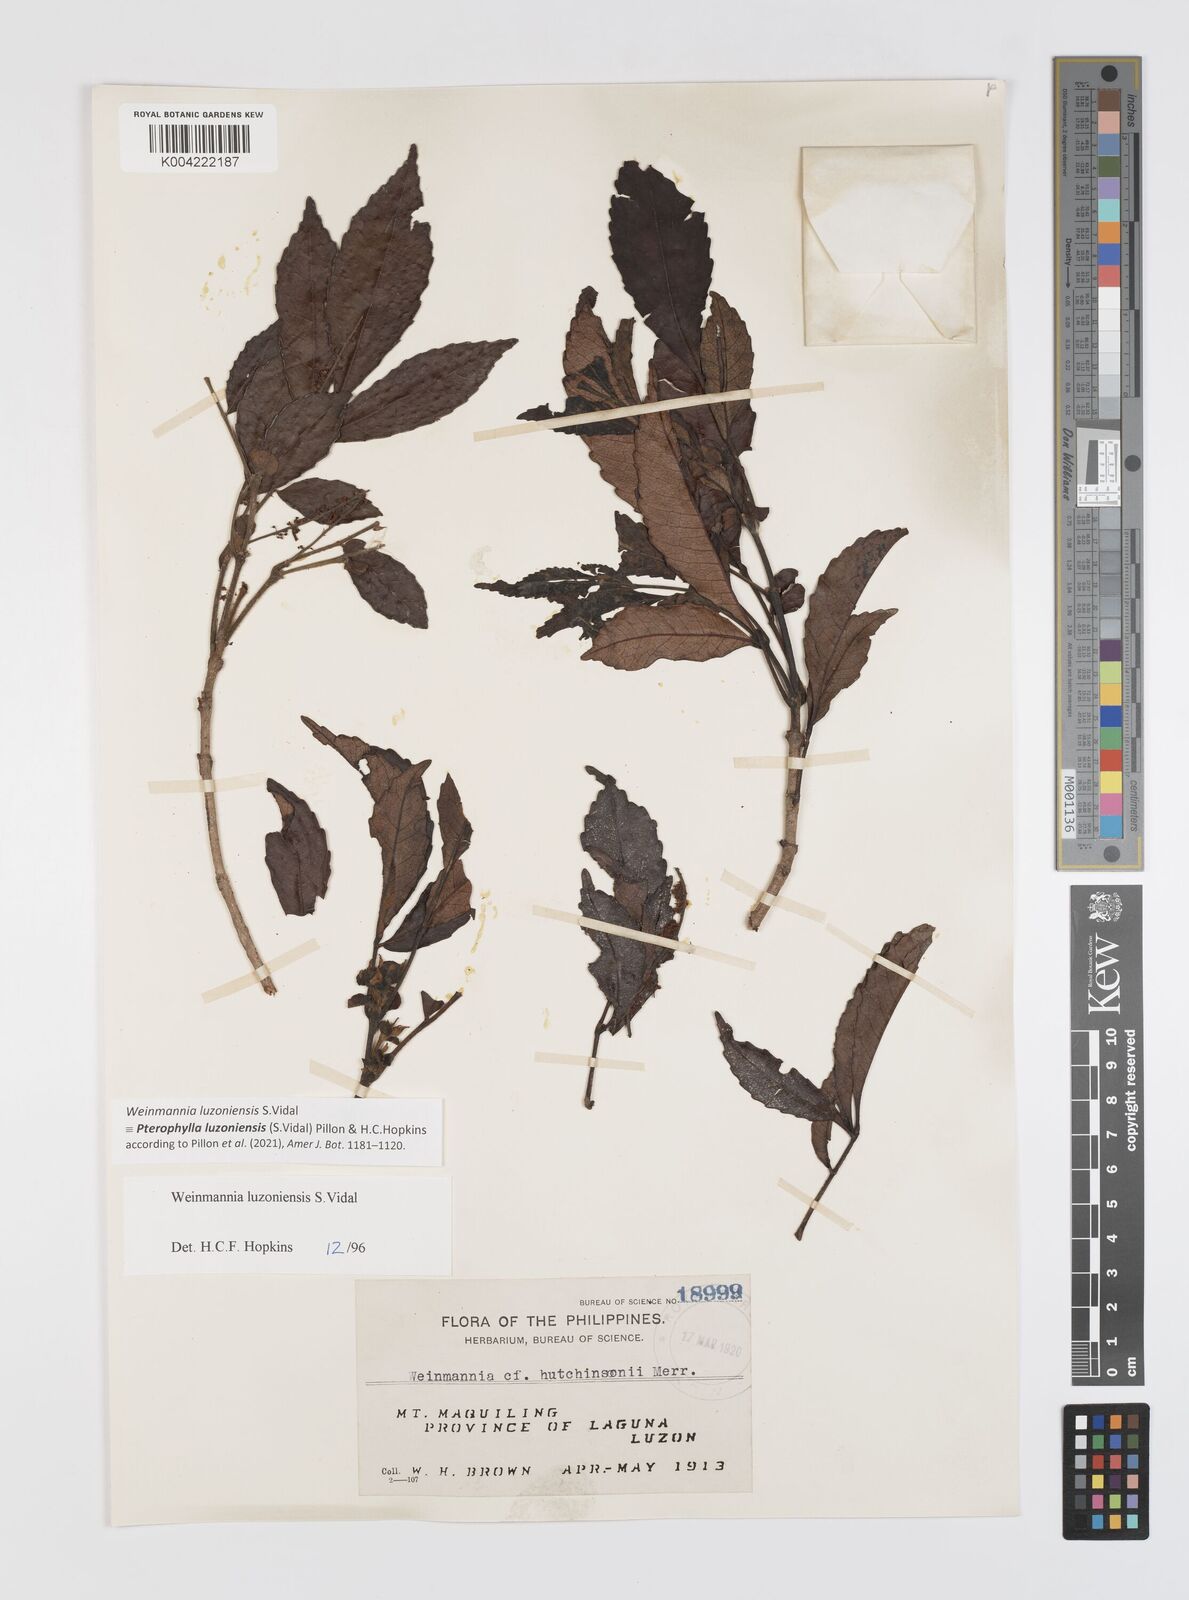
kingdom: Plantae
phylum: Tracheophyta
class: Magnoliopsida
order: Oxalidales
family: Cunoniaceae
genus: Pterophylla
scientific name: Pterophylla luzoniensis
